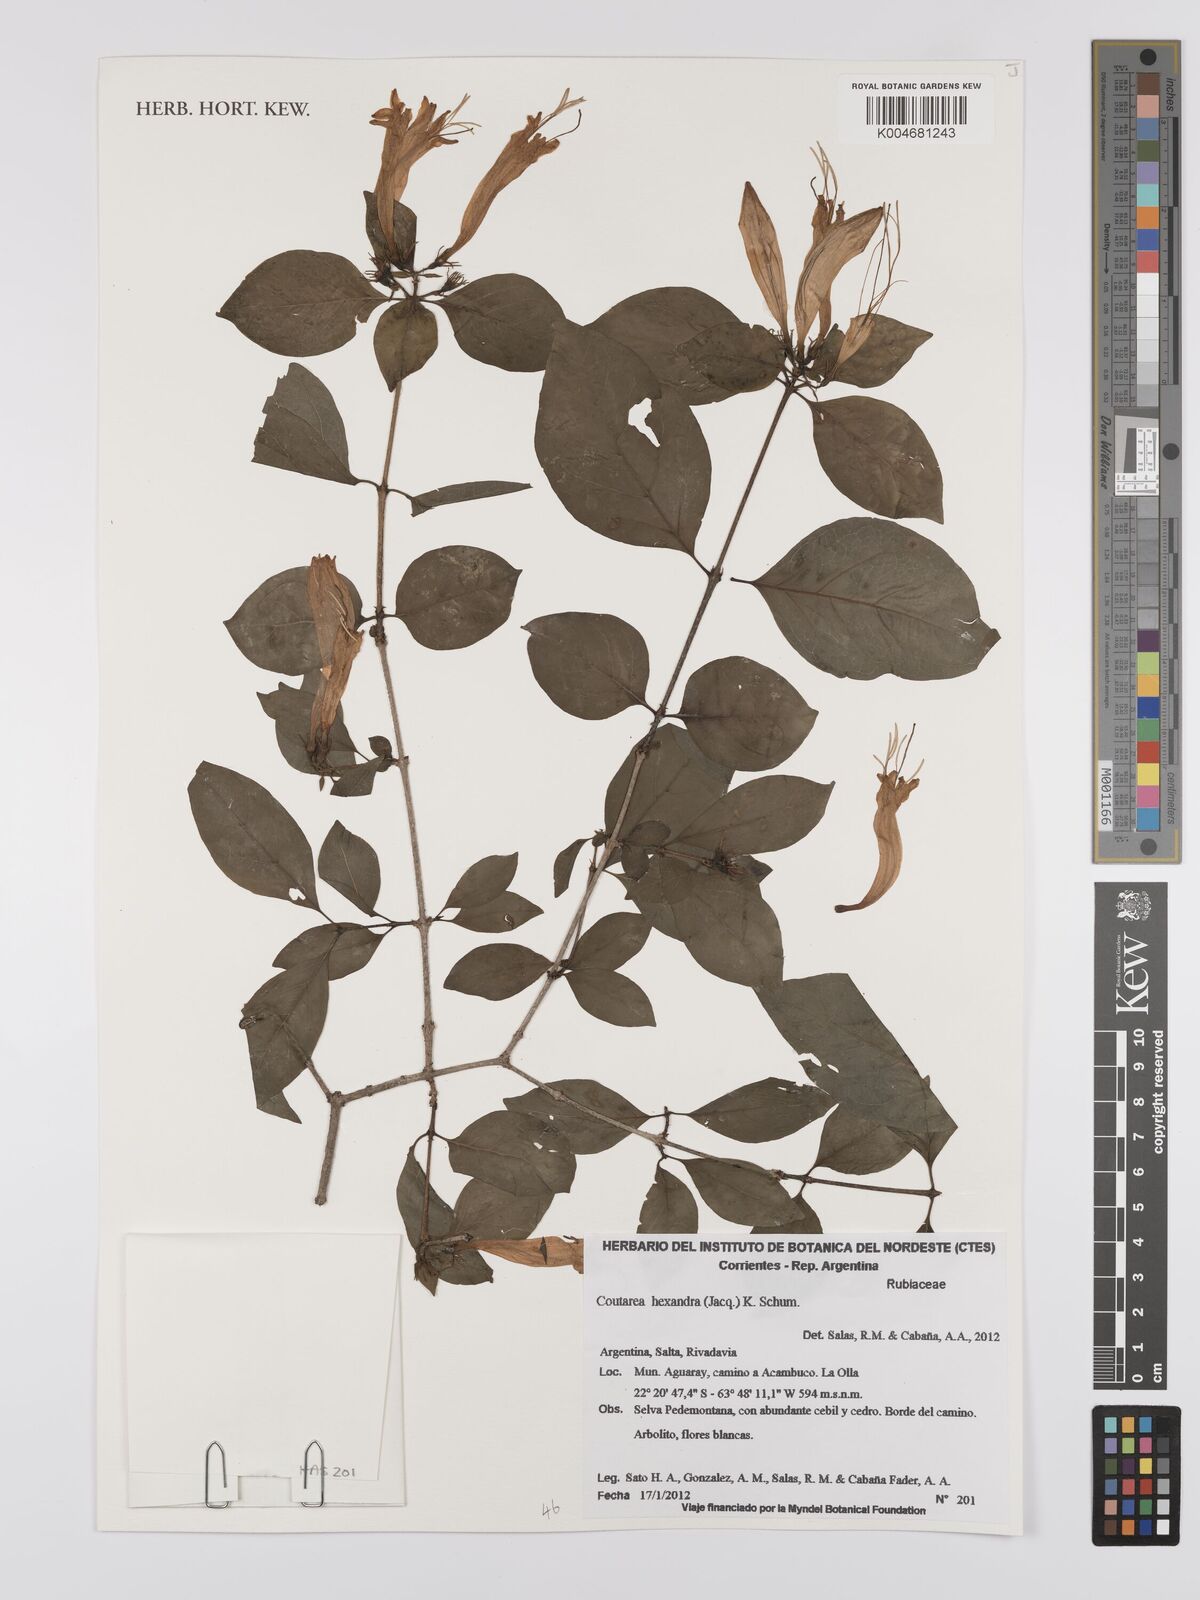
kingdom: Plantae
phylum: Tracheophyta
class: Magnoliopsida
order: Gentianales
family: Rubiaceae
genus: Coutarea
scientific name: Coutarea hexandra
